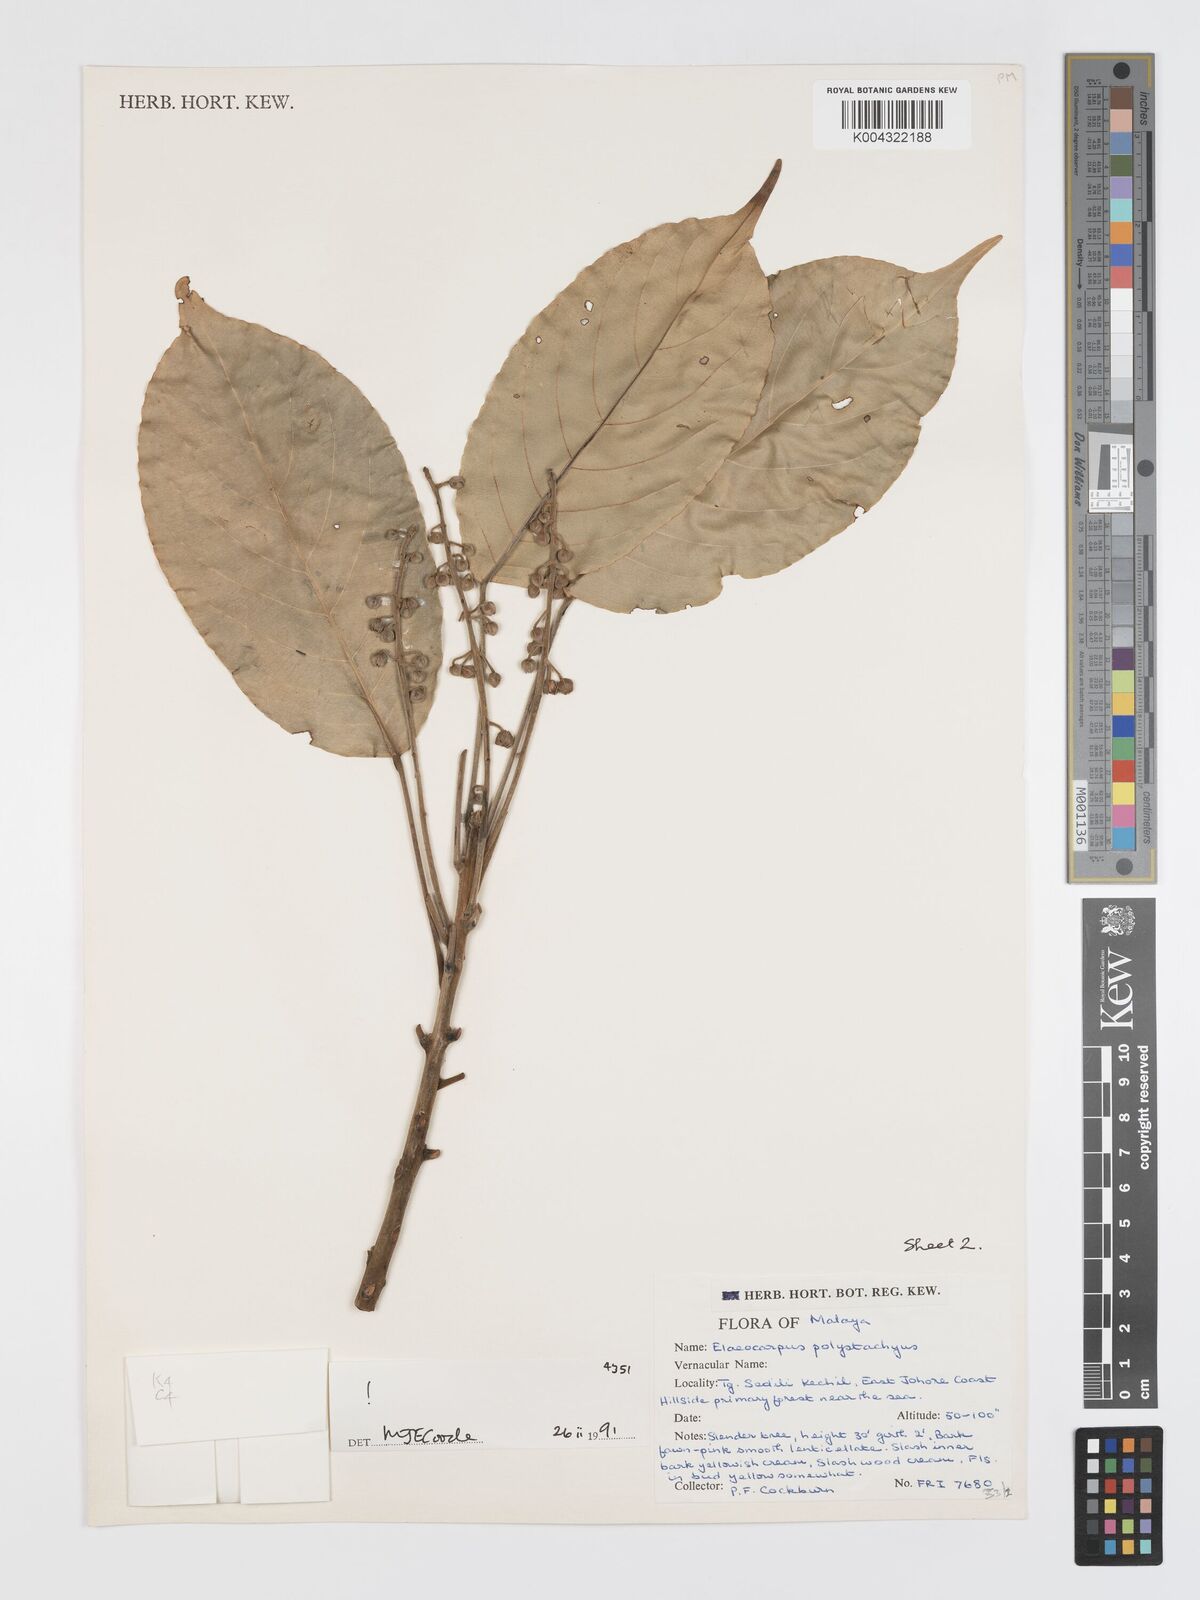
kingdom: Plantae
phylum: Tracheophyta
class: Magnoliopsida
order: Oxalidales
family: Elaeocarpaceae
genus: Elaeocarpus
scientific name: Elaeocarpus polystachyus
